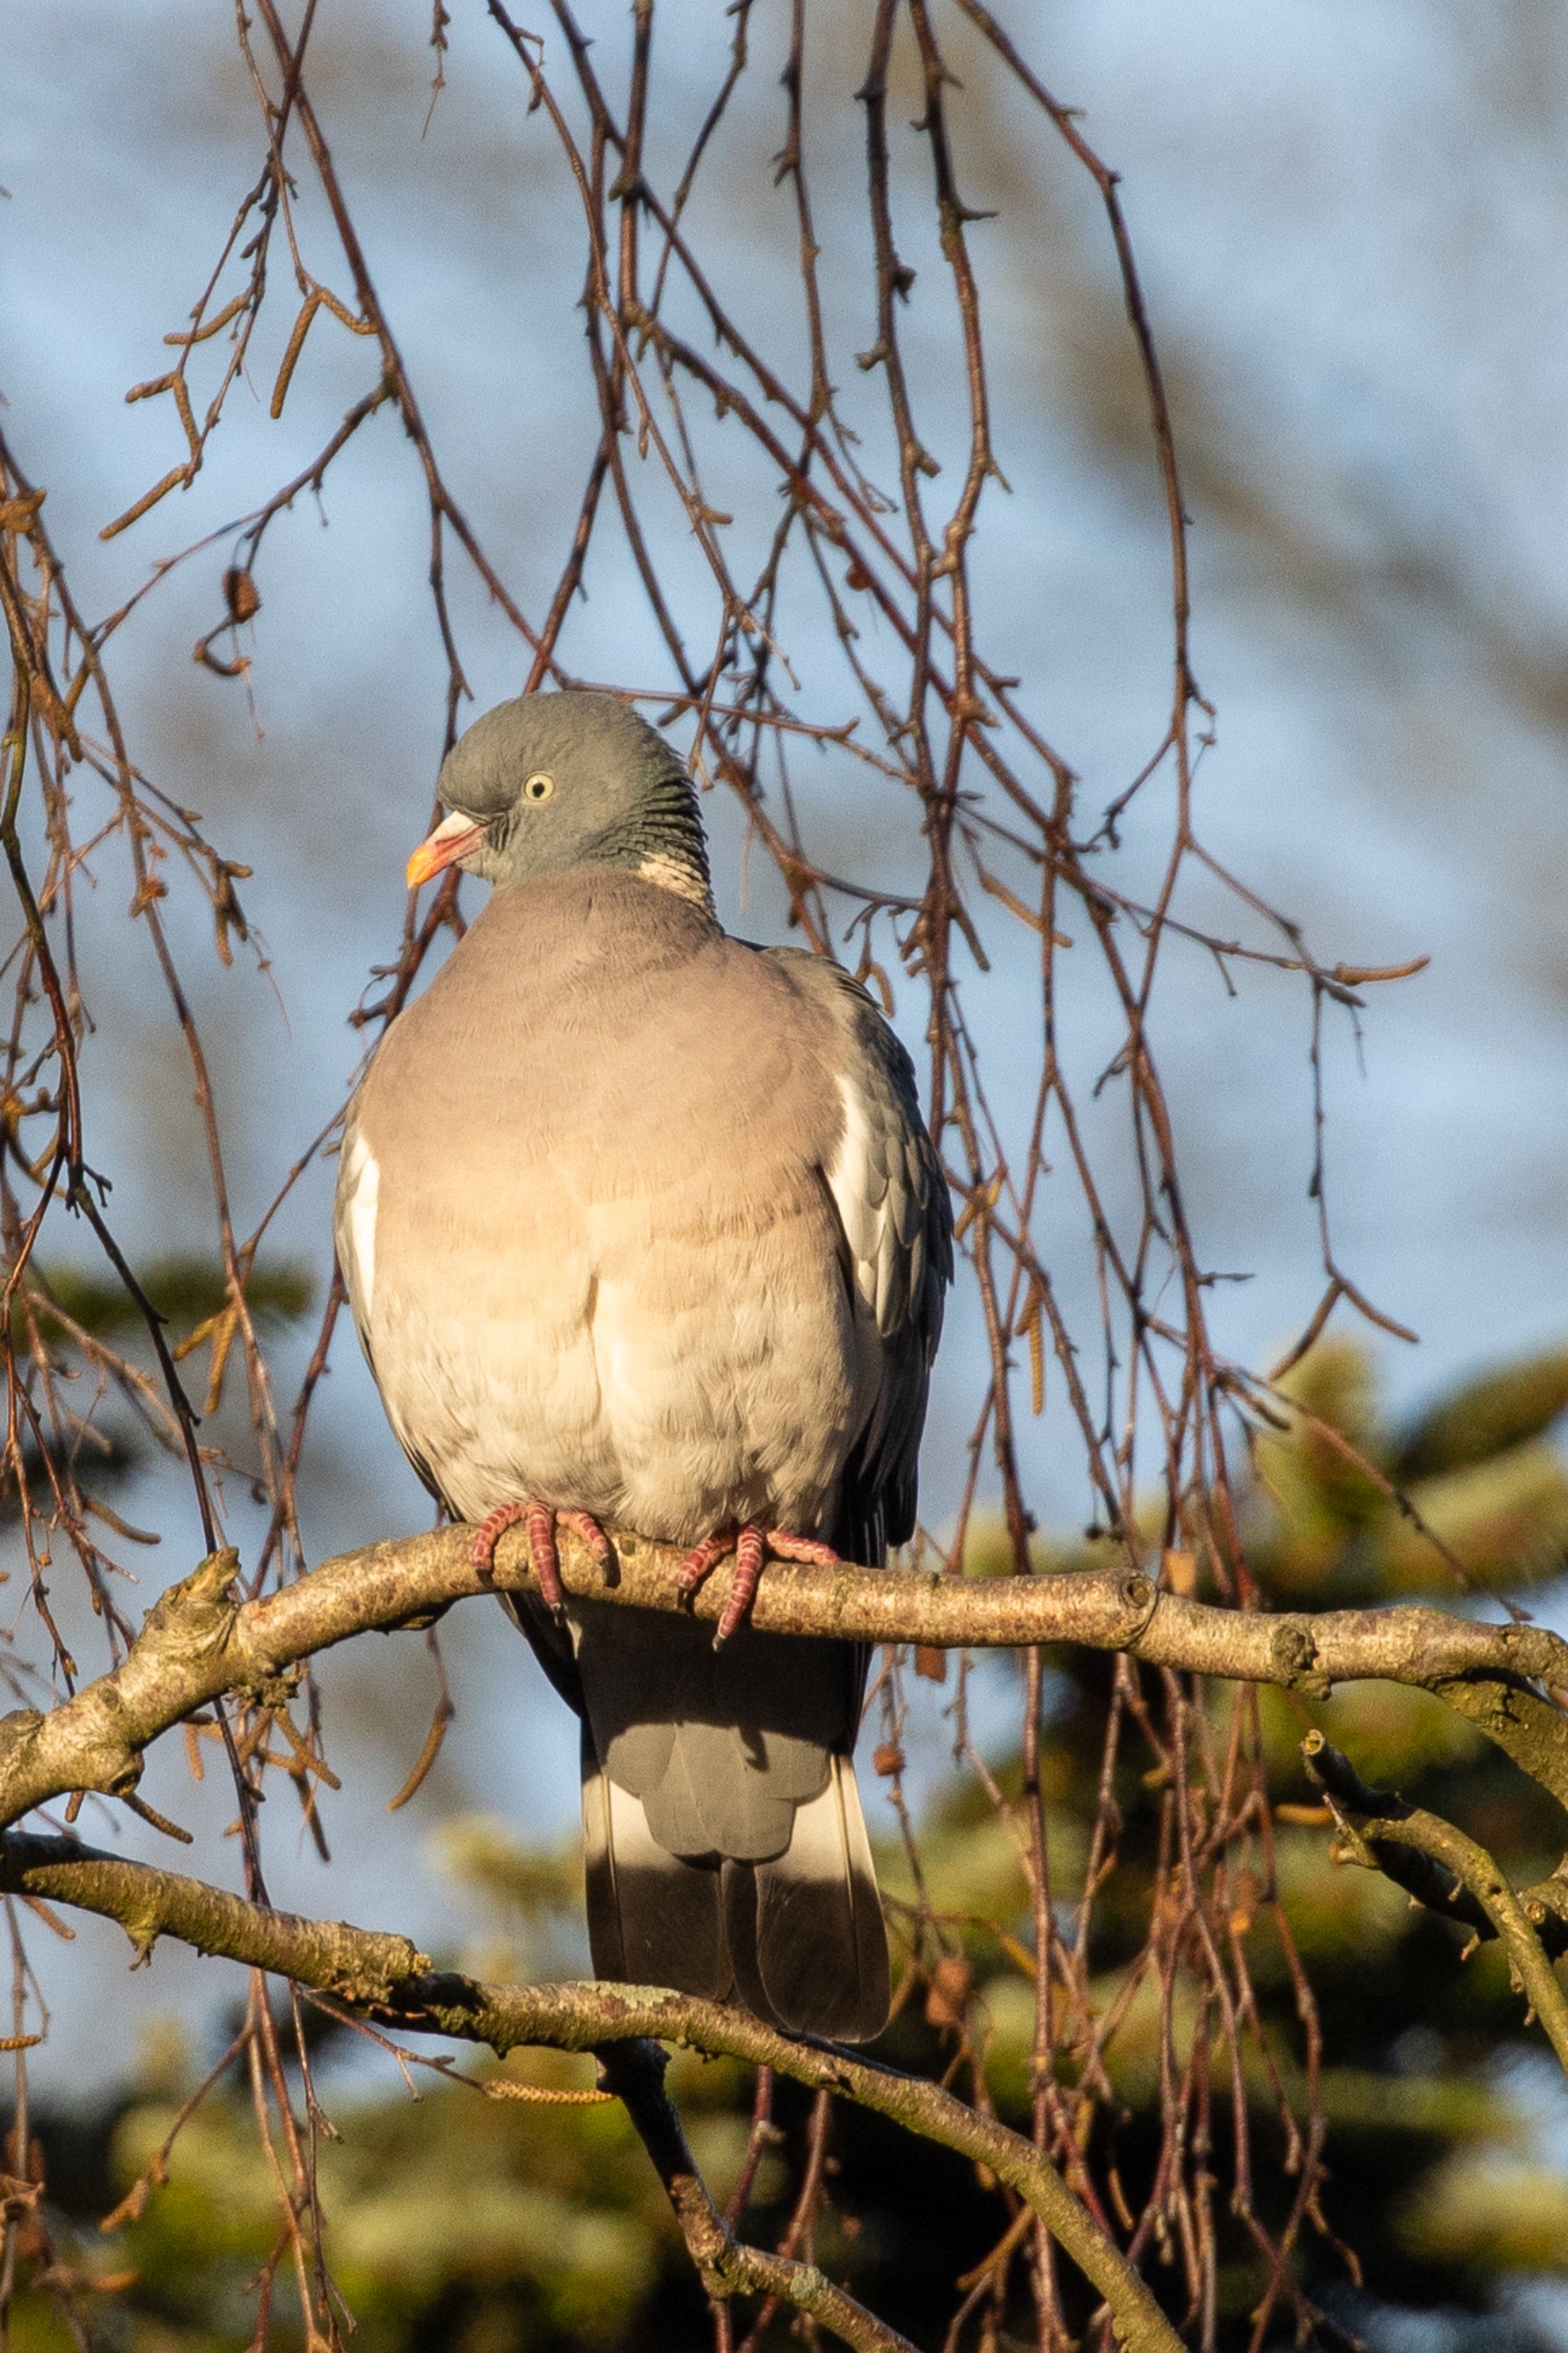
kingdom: Animalia
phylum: Chordata
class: Aves
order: Columbiformes
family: Columbidae
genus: Columba
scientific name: Columba palumbus
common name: Ringdue
